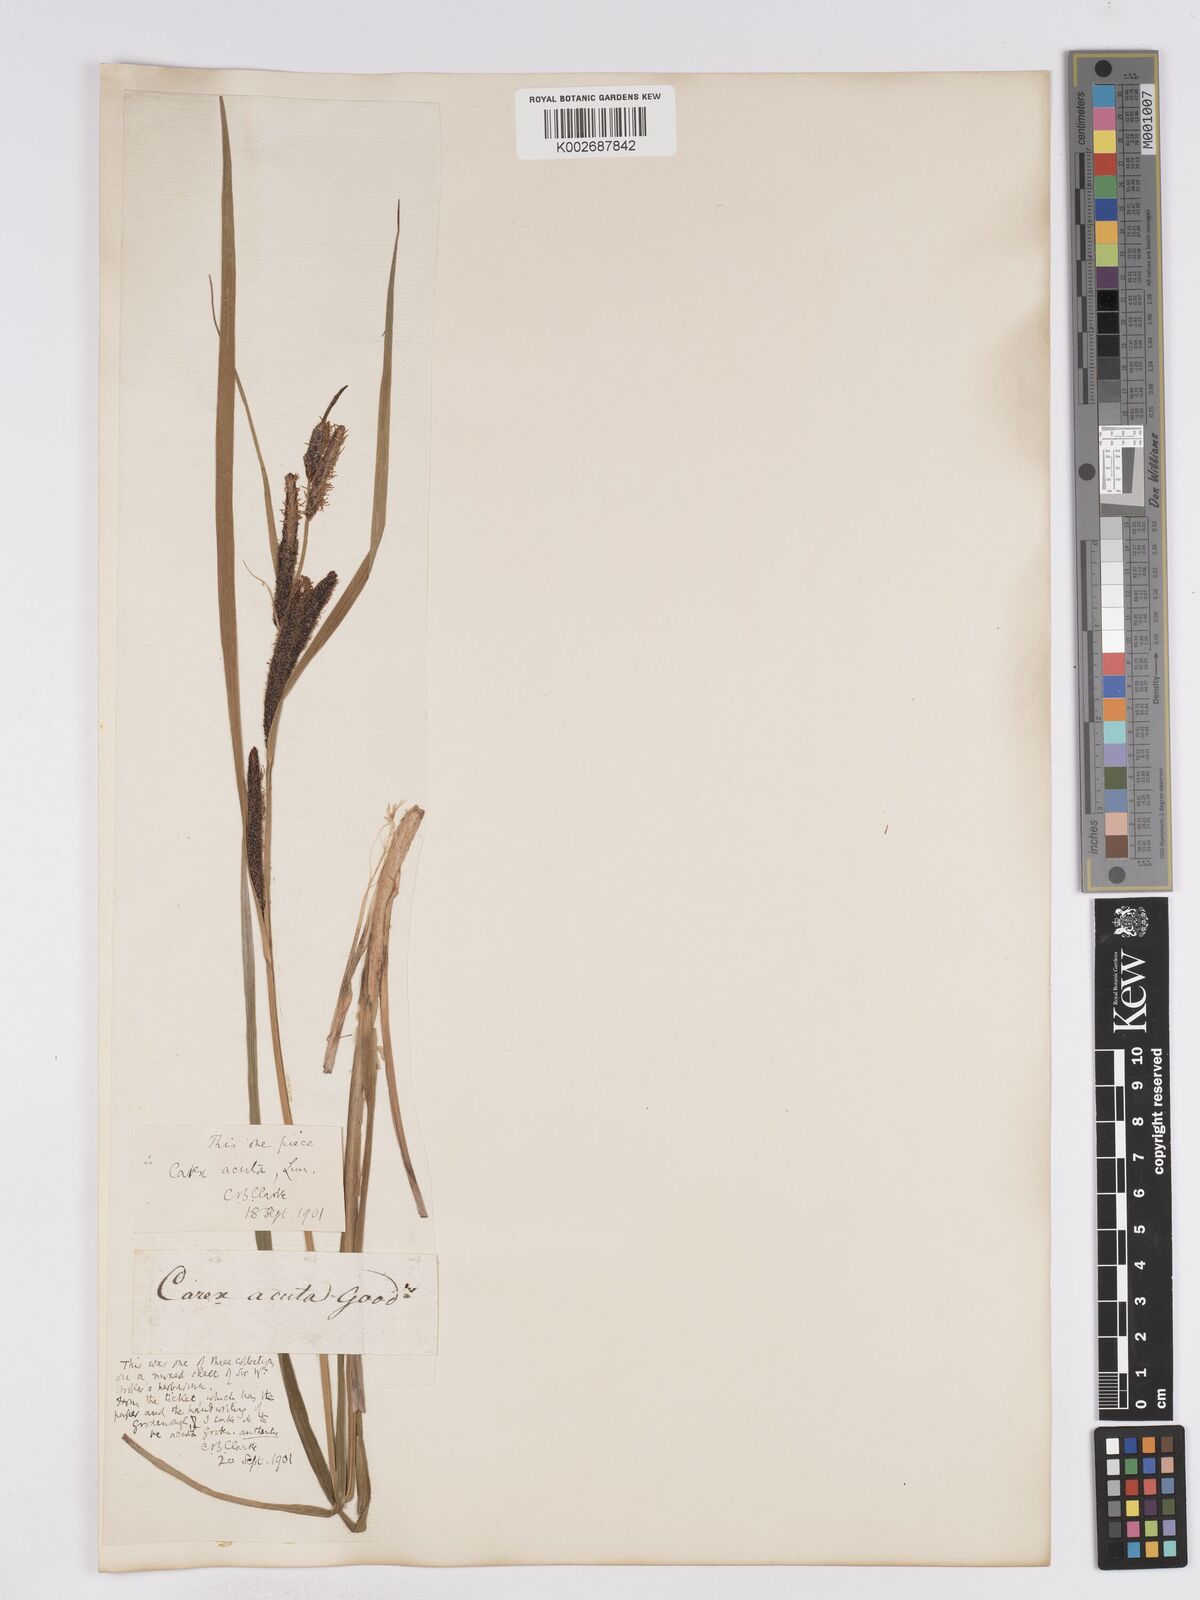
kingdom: Plantae
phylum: Tracheophyta
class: Liliopsida
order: Poales
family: Cyperaceae
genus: Carex
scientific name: Carex acuta
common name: Slender tufted-sedge
